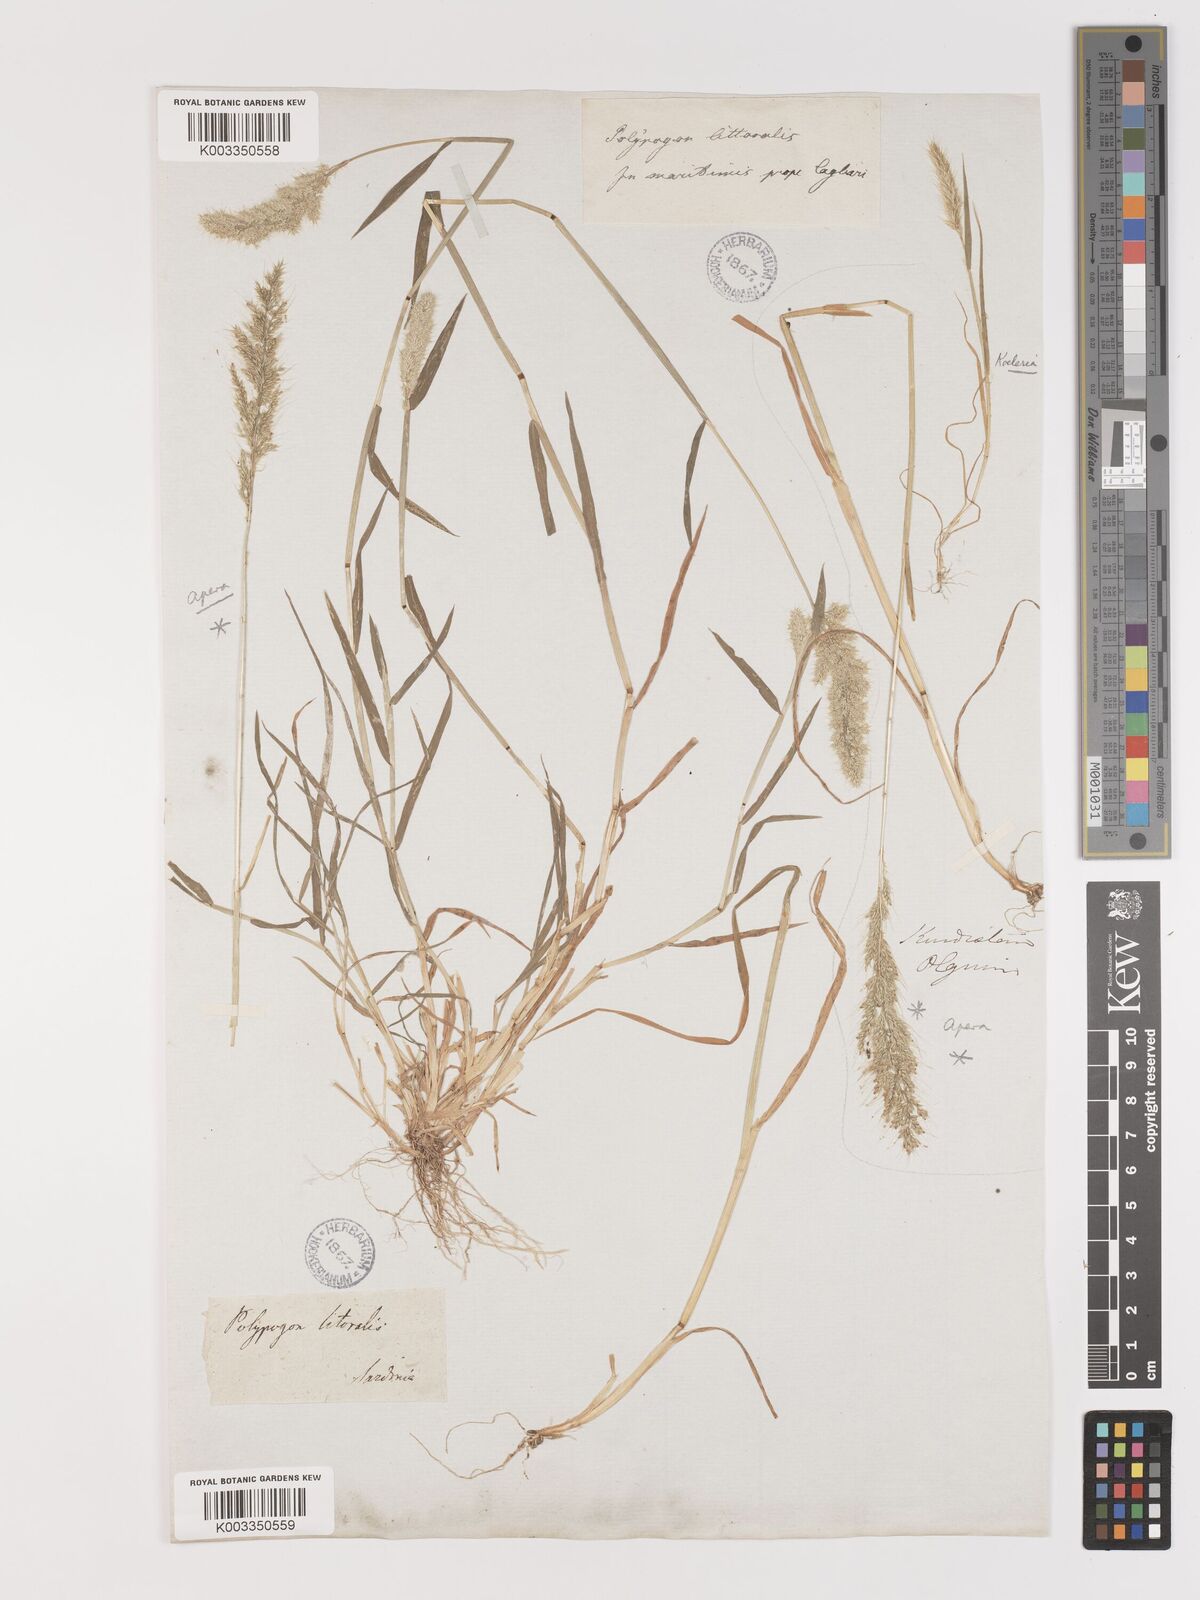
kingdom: Plantae
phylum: Tracheophyta
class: Liliopsida
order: Poales
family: Poaceae
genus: Agropogon
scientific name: Agropogon lutosus
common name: Coast agropogon
